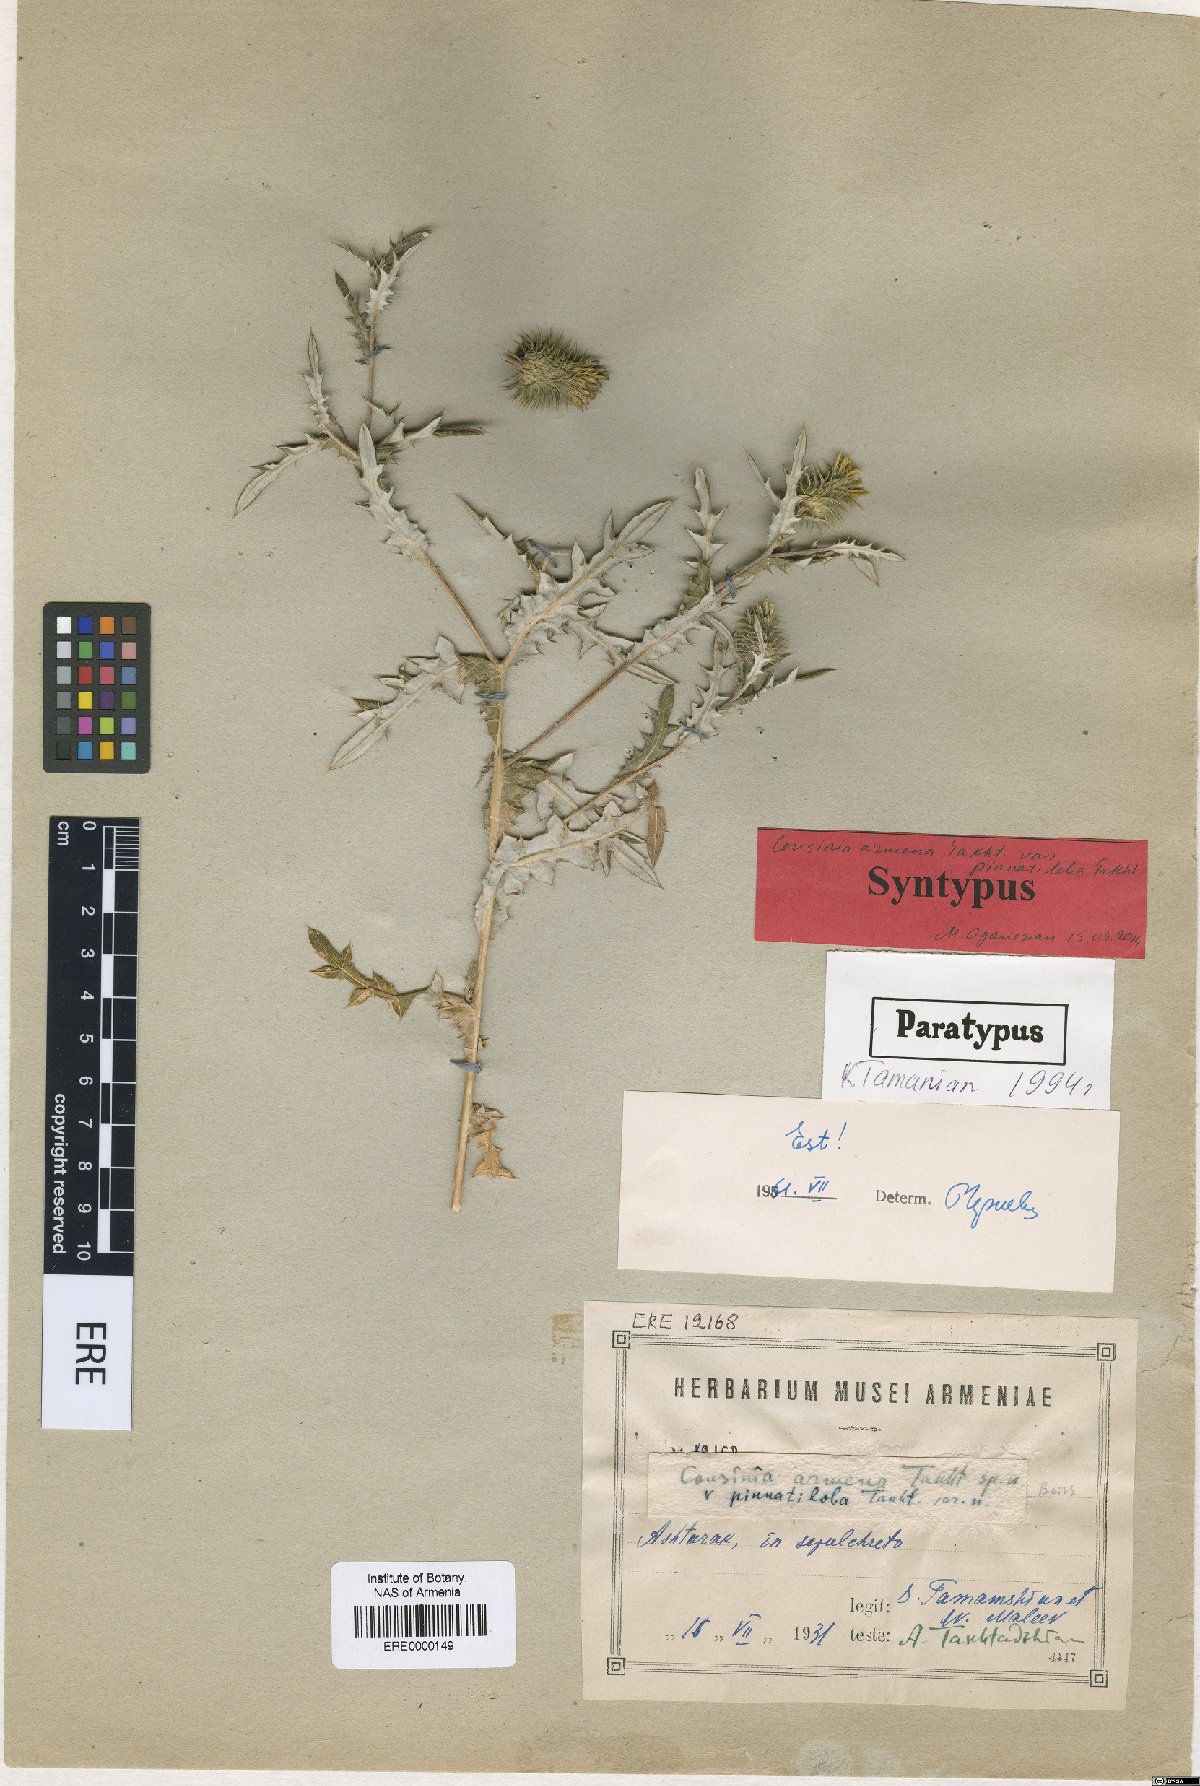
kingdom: Plantae
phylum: Tracheophyta
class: Magnoliopsida
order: Asterales
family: Asteraceae
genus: Cousinia
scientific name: Cousinia armena
